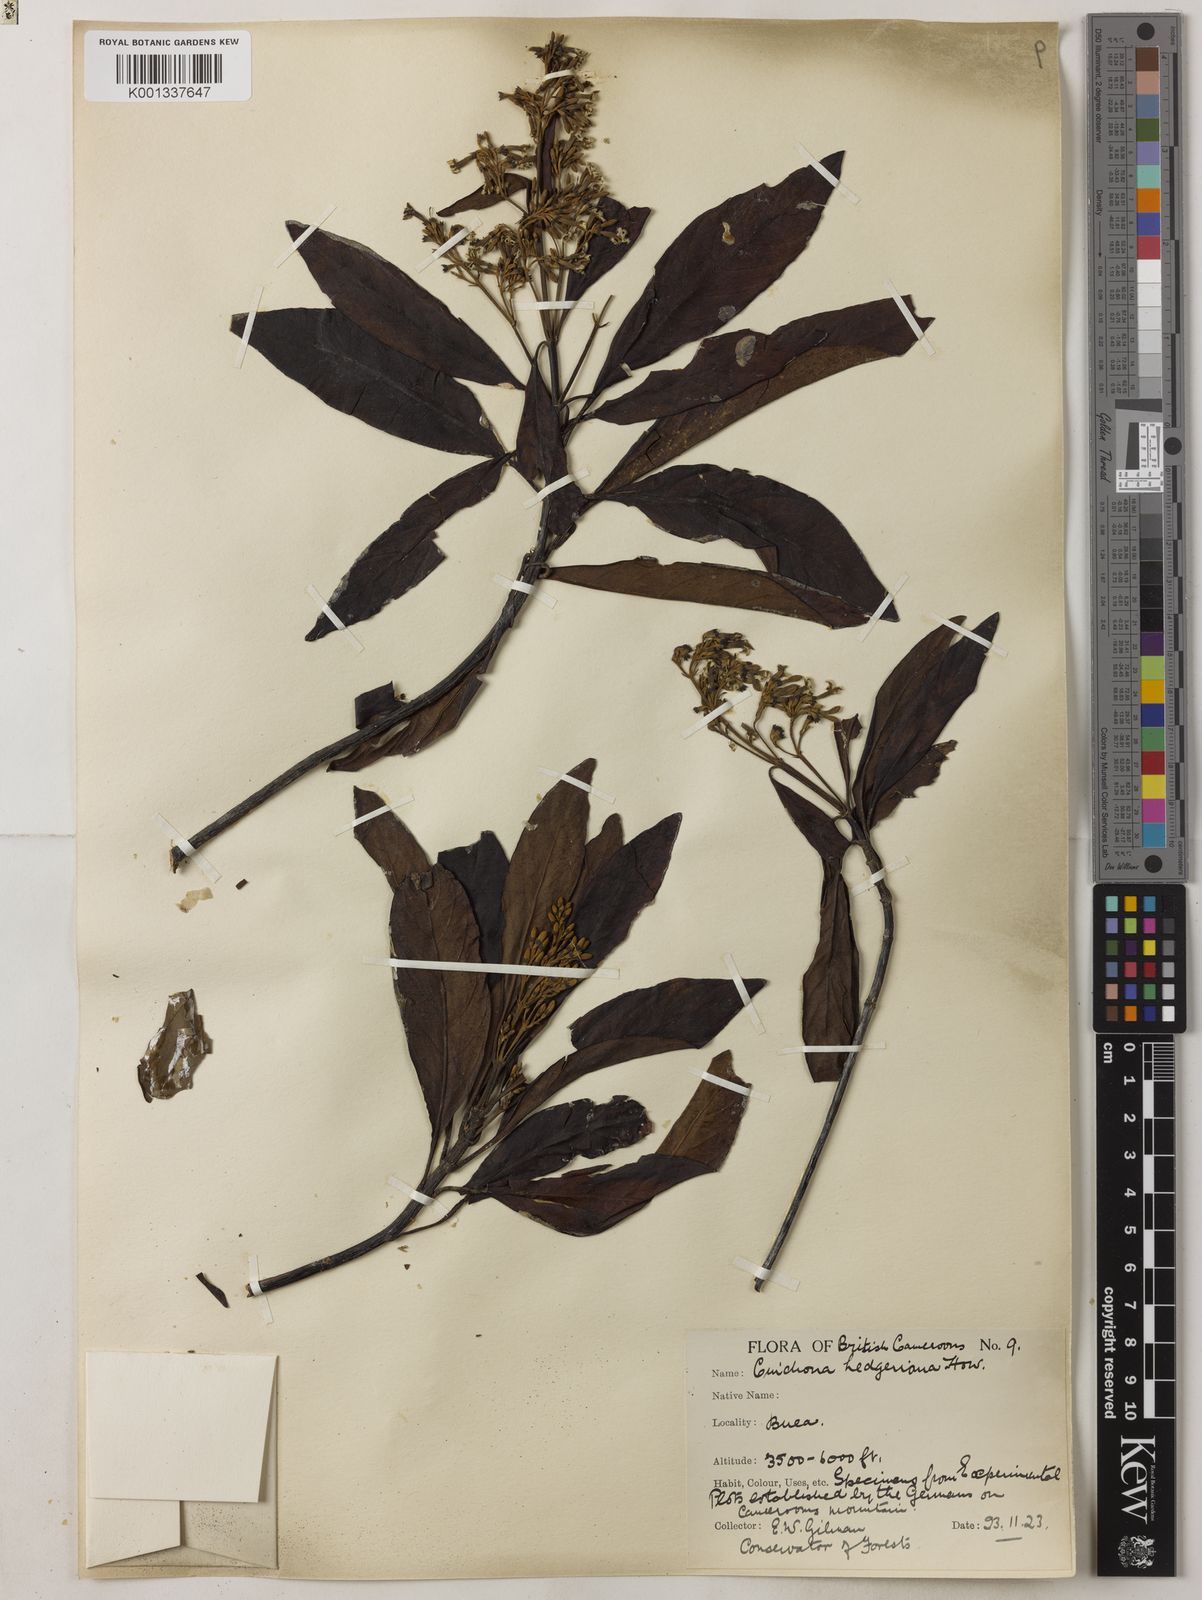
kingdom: Plantae
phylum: Tracheophyta
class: Magnoliopsida
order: Gentianales
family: Rubiaceae
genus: Cinchona
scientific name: Cinchona calisaya
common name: Ledgerbark
